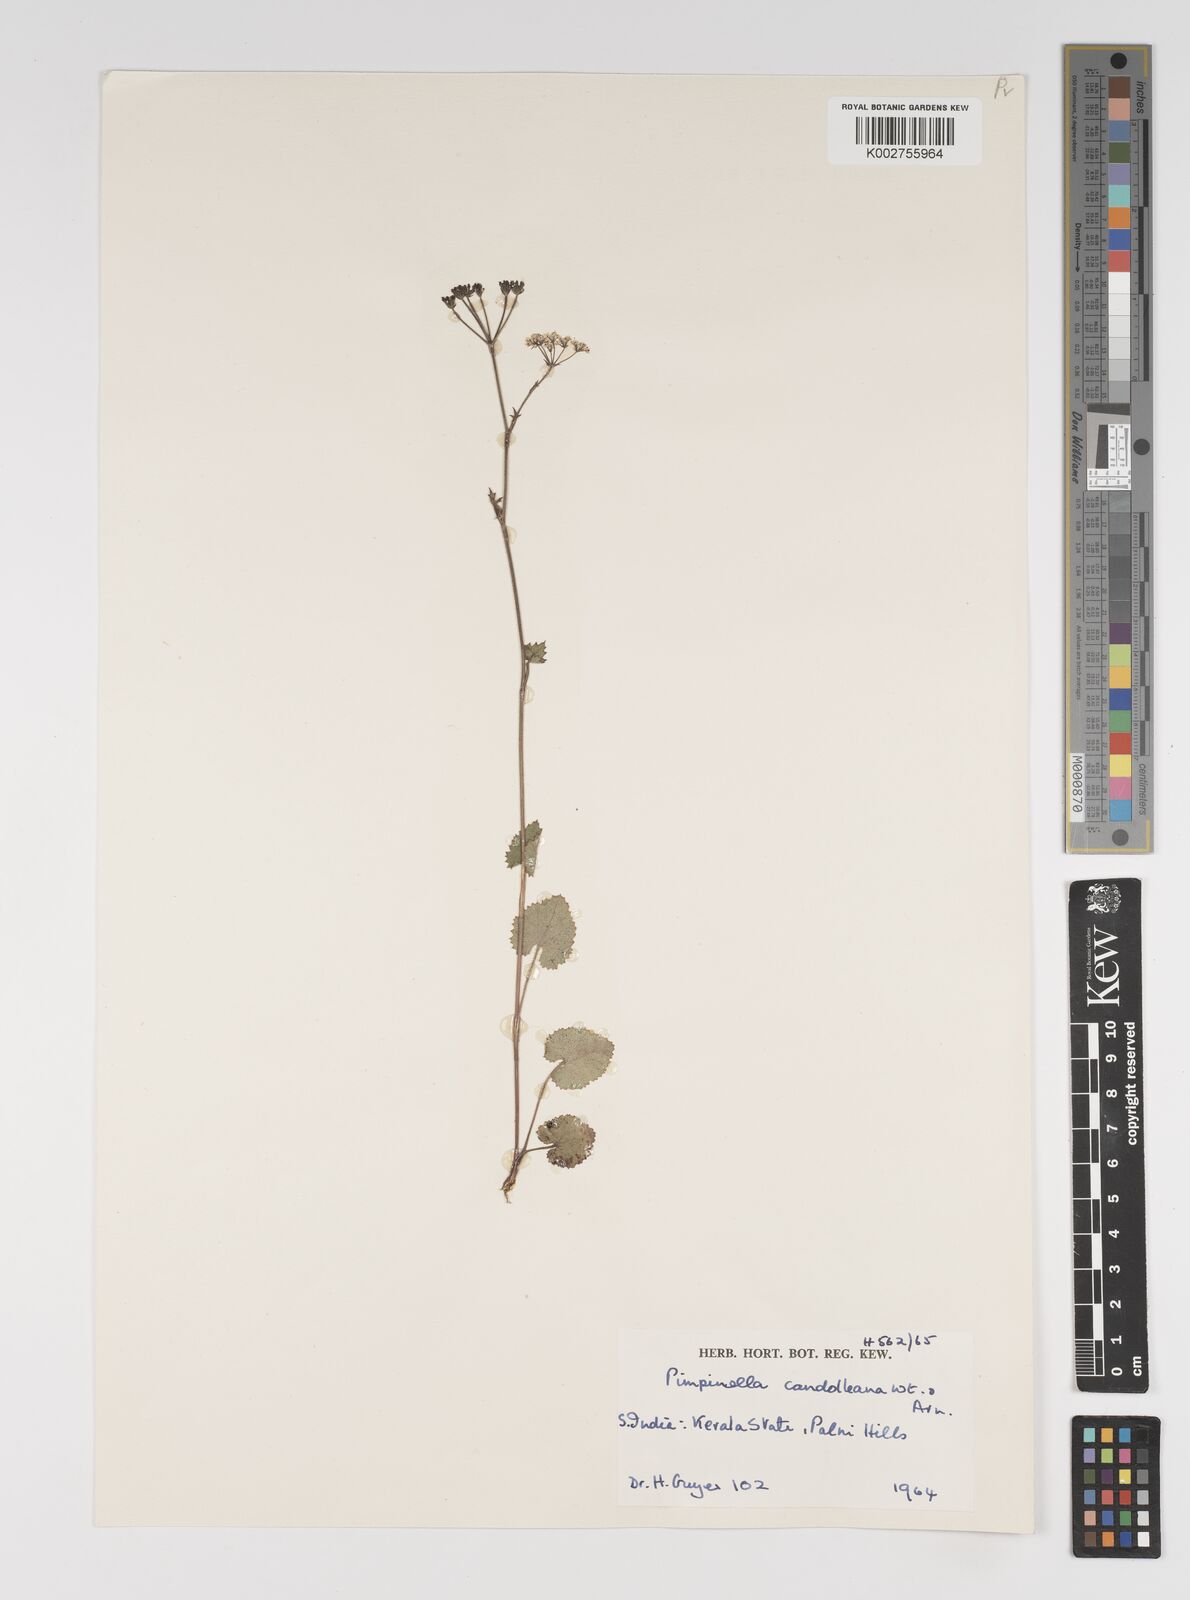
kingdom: Plantae
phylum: Tracheophyta
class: Magnoliopsida
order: Apiales
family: Apiaceae
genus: Pimpinella
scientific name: Pimpinella candolleana
